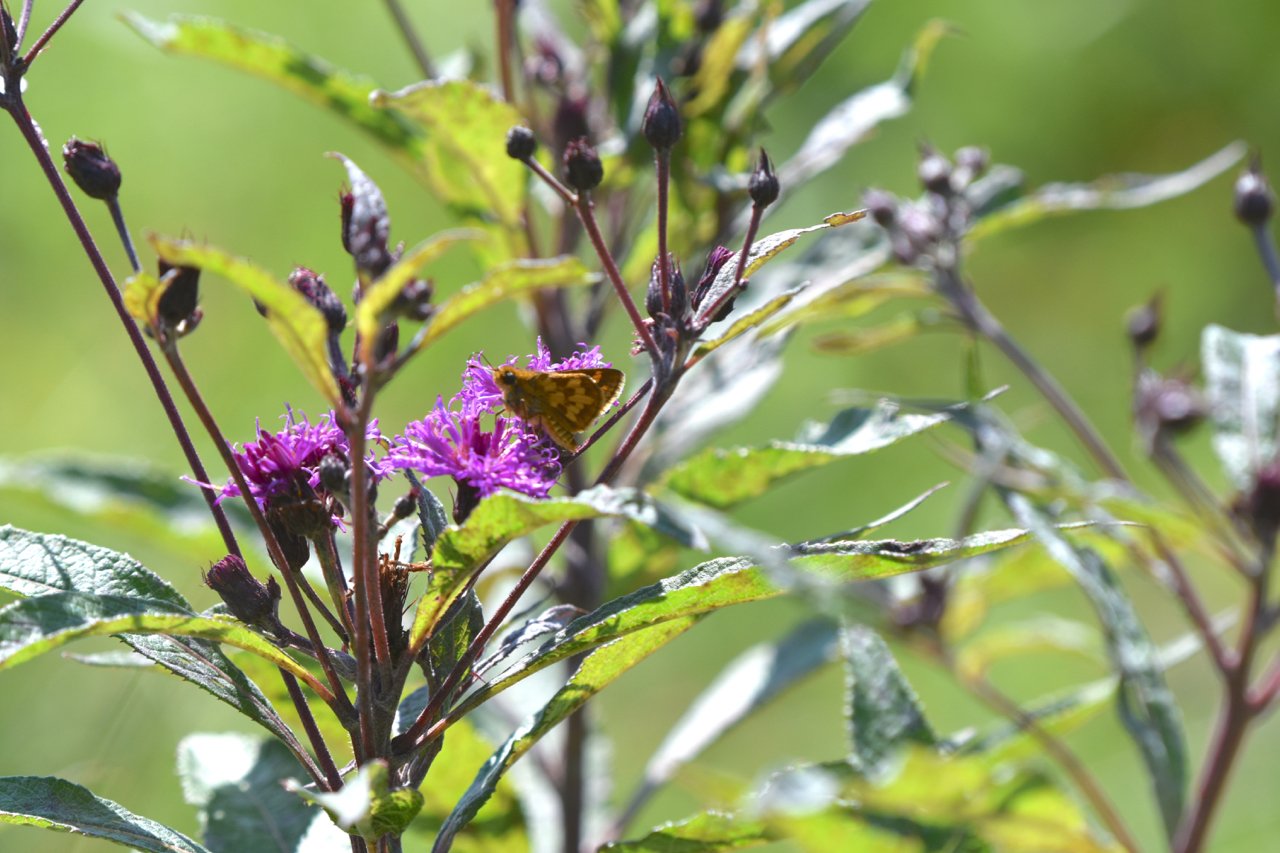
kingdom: Animalia
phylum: Arthropoda
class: Insecta
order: Lepidoptera
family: Hesperiidae
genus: Polites
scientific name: Polites coras
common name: Peck's Skipper
